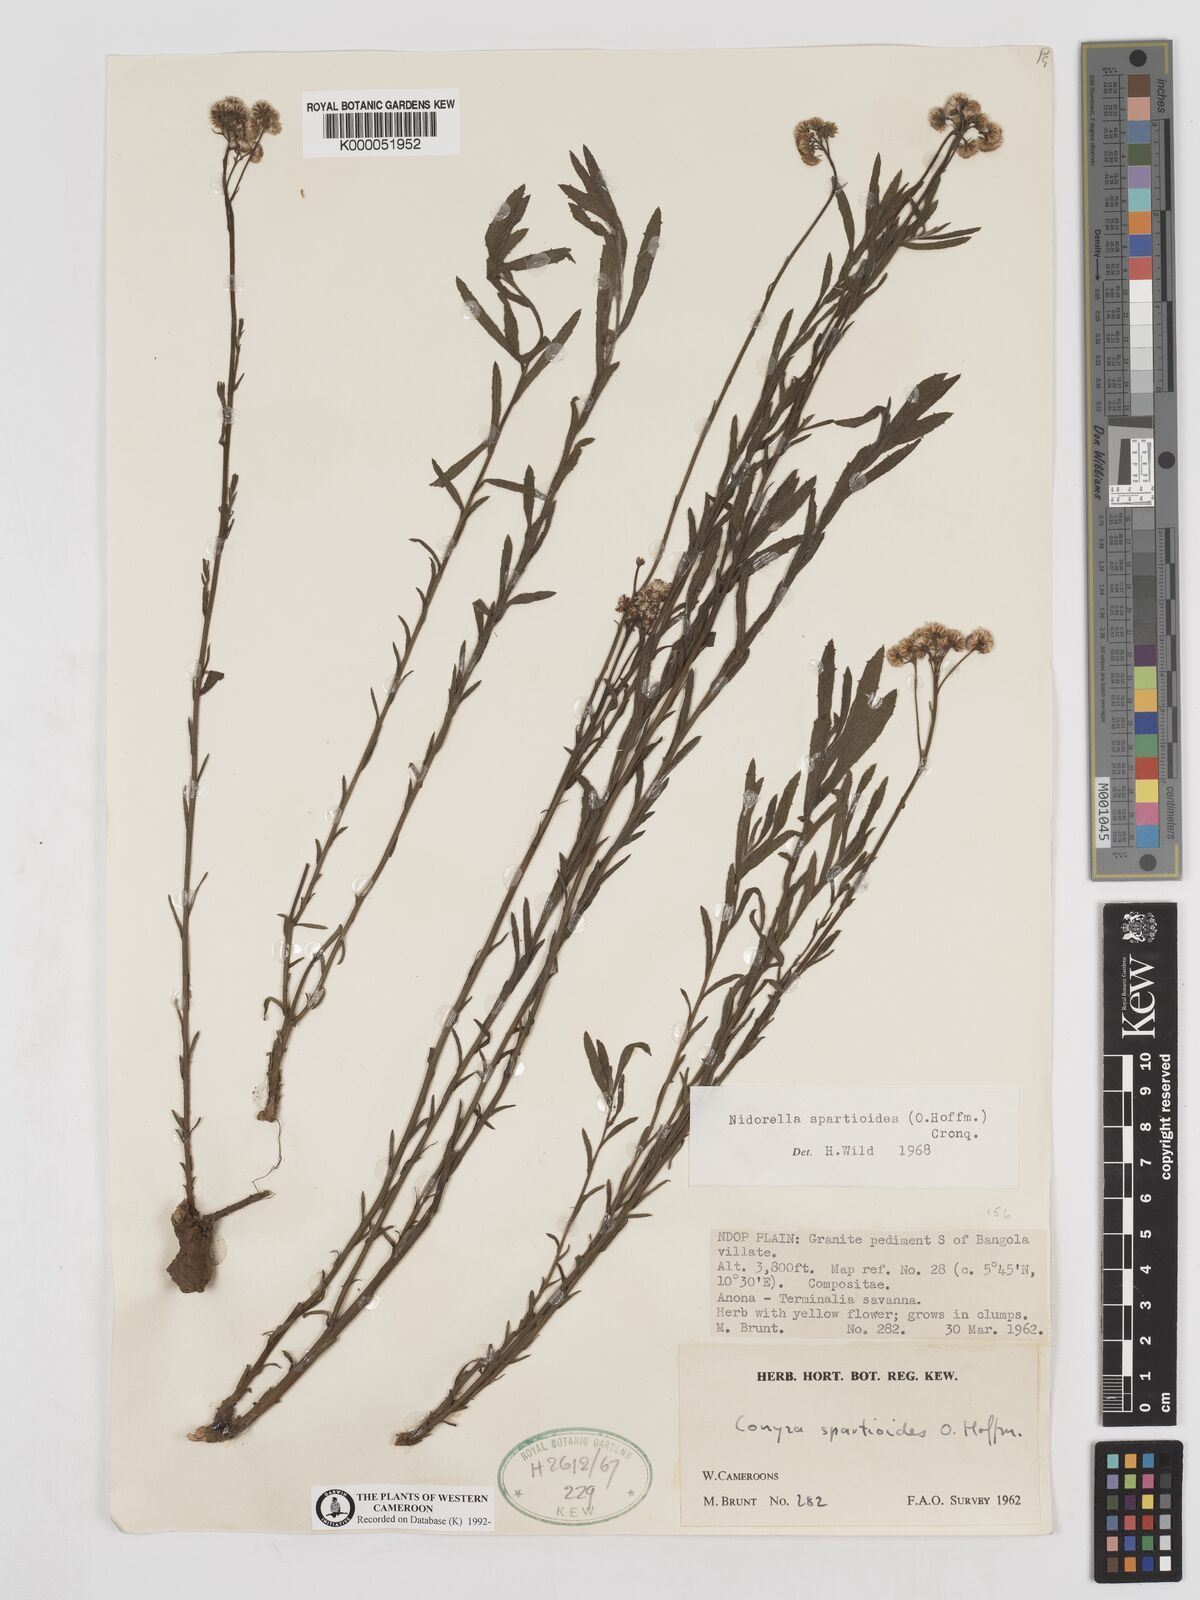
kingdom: Plantae
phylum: Tracheophyta
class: Magnoliopsida
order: Asterales
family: Asteraceae
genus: Nidorella
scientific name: Nidorella spartioides
